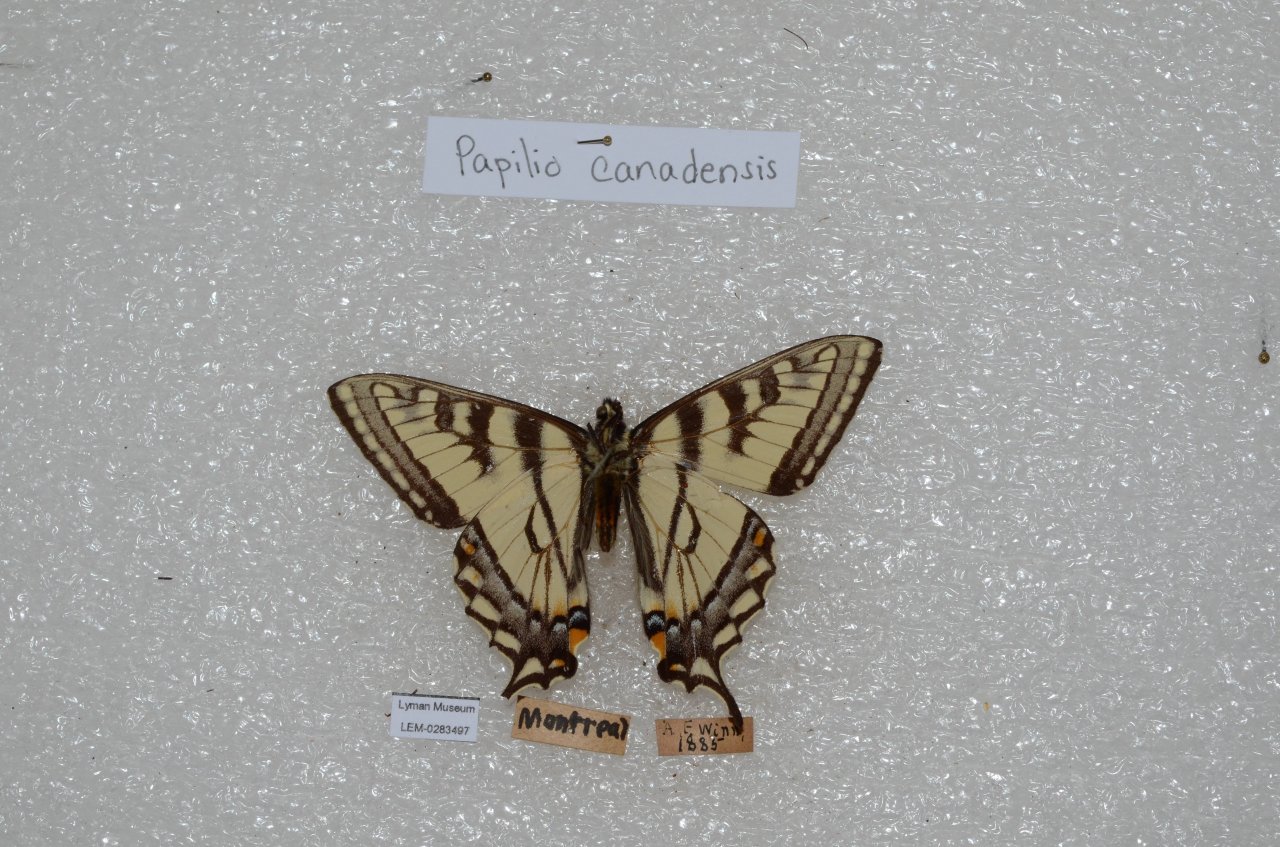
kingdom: Animalia
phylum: Arthropoda
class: Insecta
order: Lepidoptera
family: Papilionidae
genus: Pterourus
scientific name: Pterourus canadensis
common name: Canadian Tiger Swallowtail
